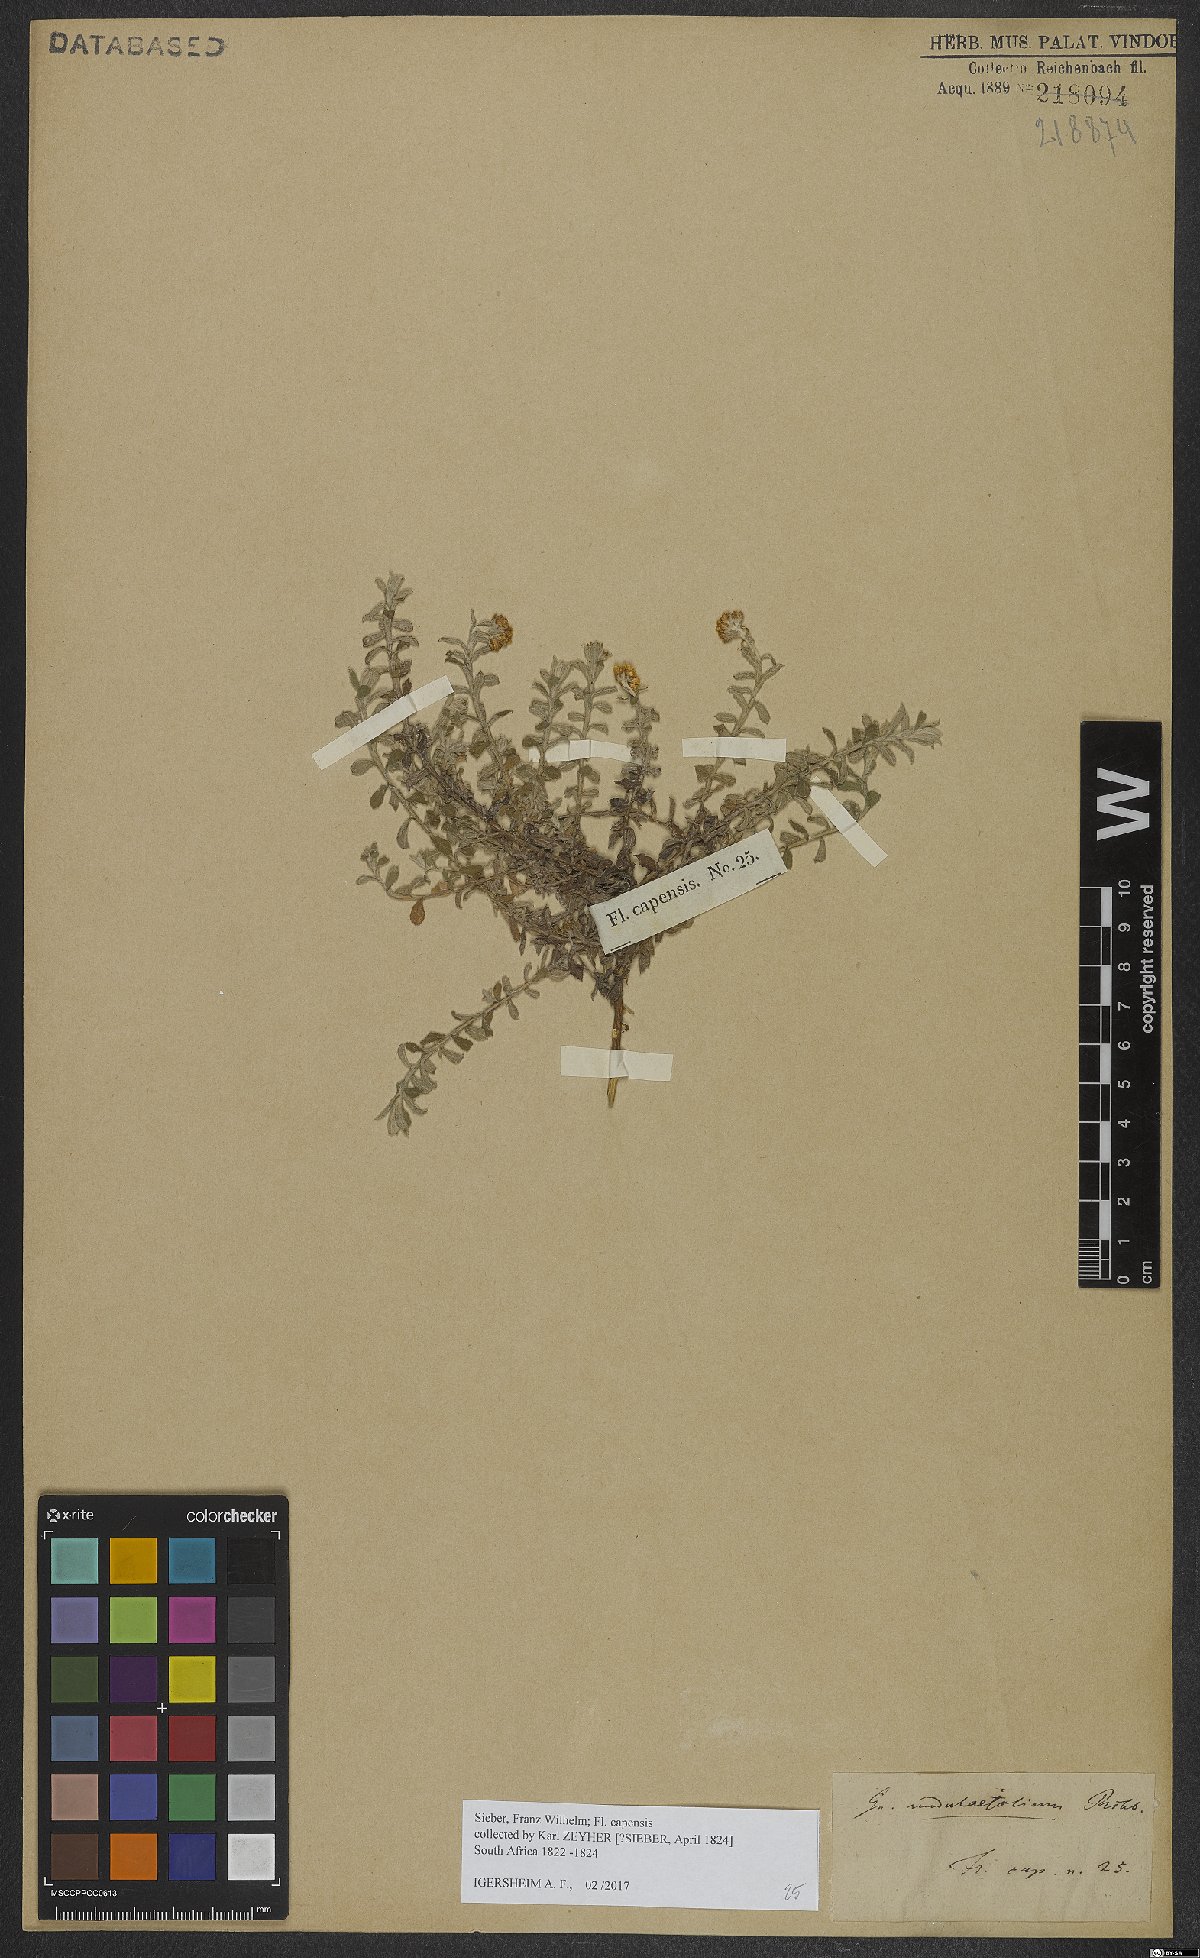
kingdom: Plantae
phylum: Tracheophyta
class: Magnoliopsida
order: Asterales
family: Asteraceae
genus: Helichrysum
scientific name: Helichrysum odoratissimum
